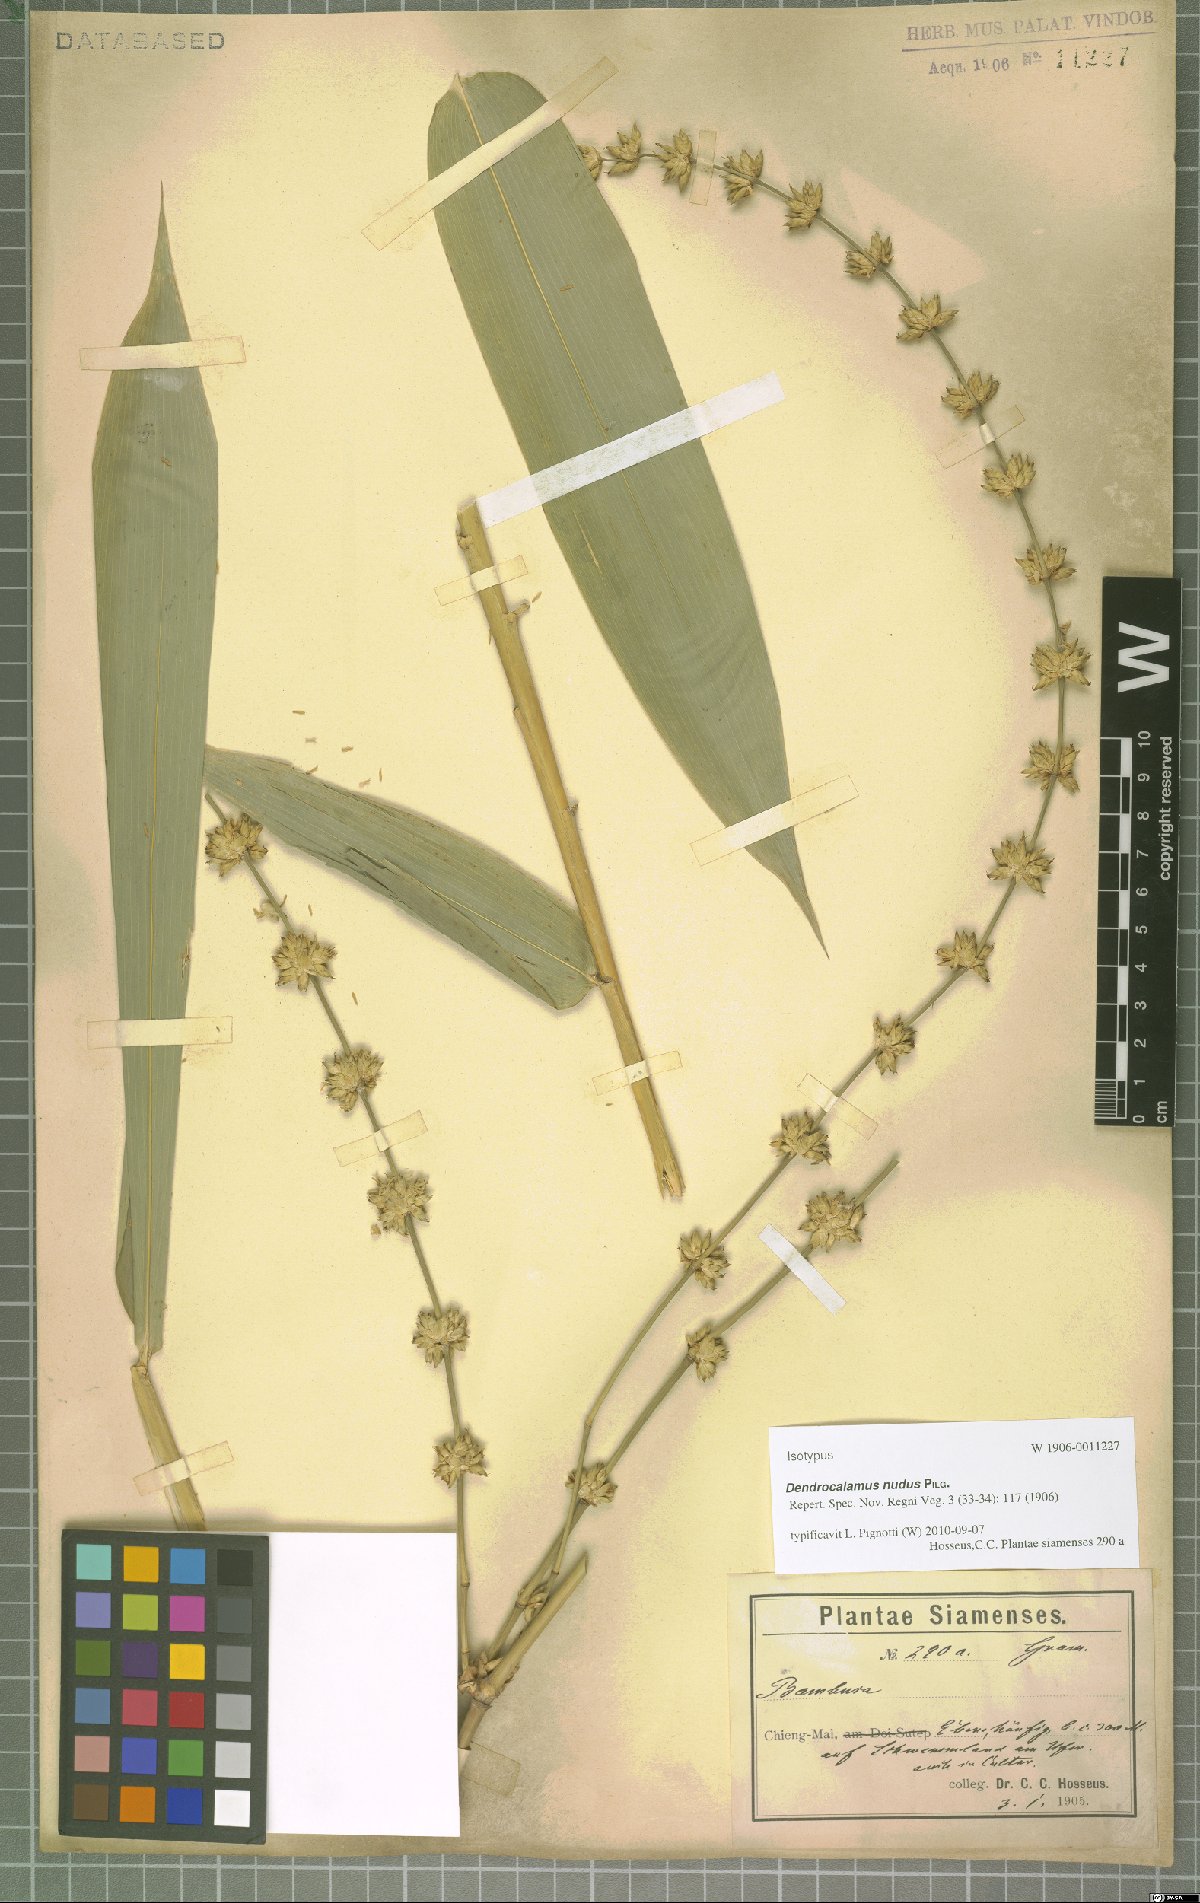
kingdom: Plantae
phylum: Tracheophyta
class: Liliopsida
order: Poales
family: Poaceae
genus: Dendrocalamus
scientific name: Dendrocalamus nudus
